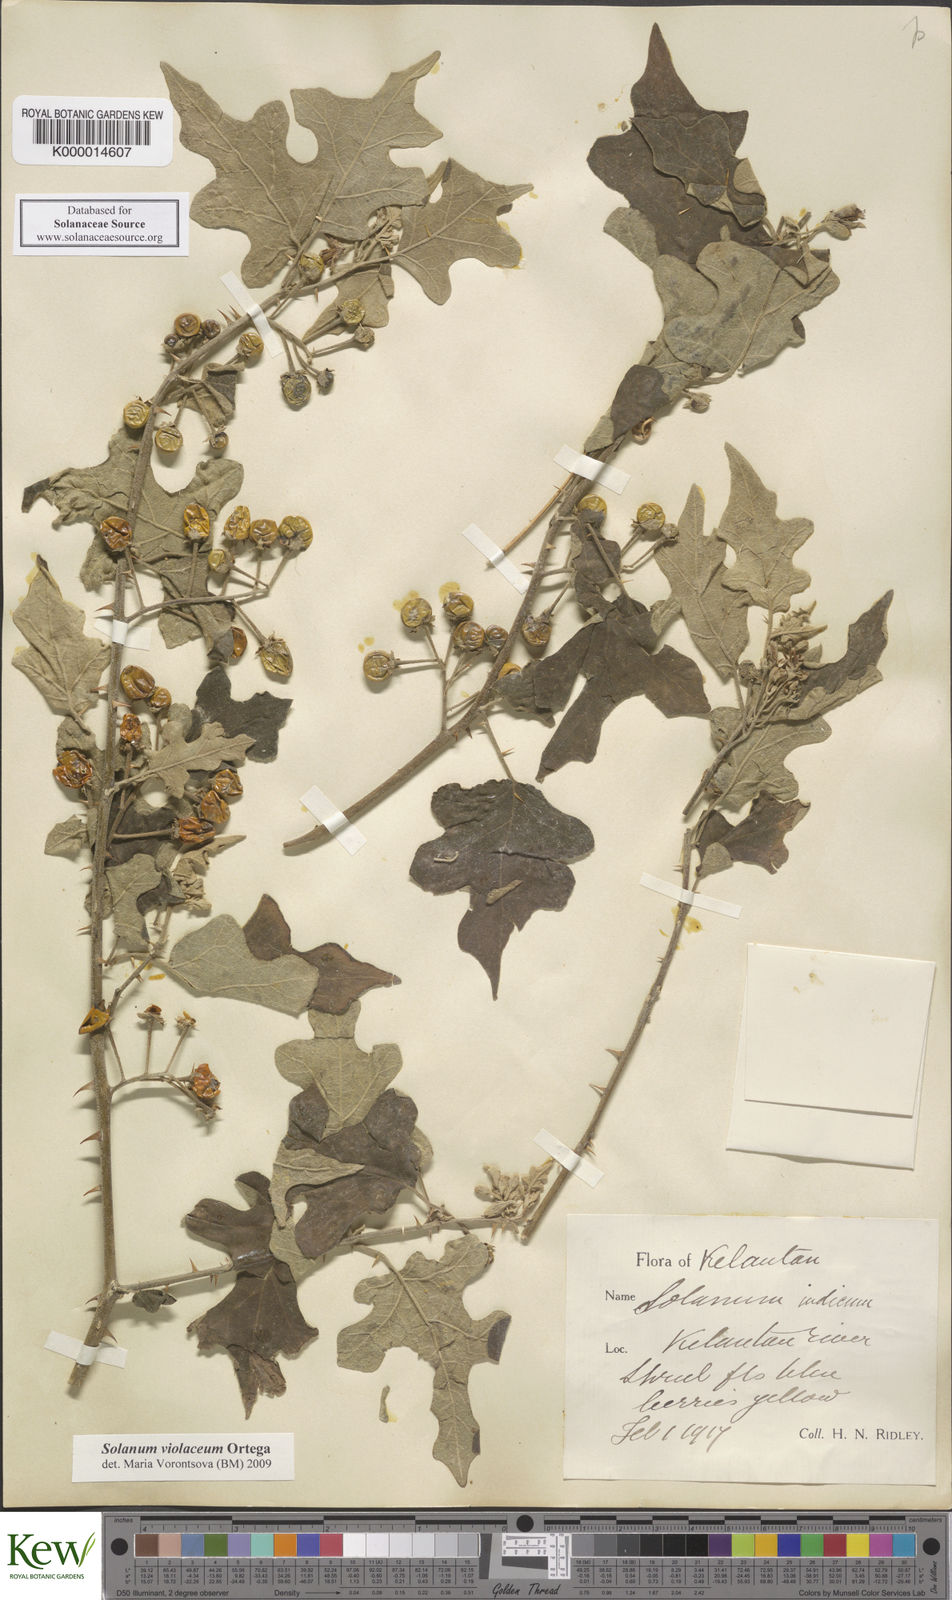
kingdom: Plantae
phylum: Tracheophyta
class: Magnoliopsida
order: Solanales
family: Solanaceae
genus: Solanum
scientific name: Solanum violaceum
